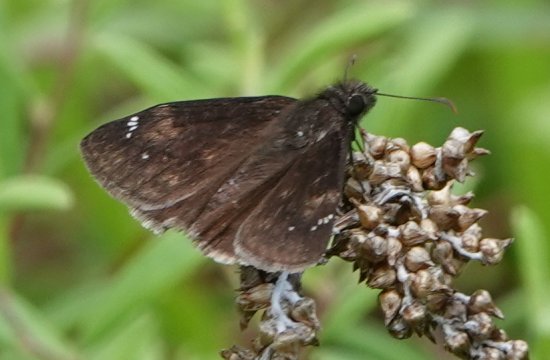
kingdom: Animalia
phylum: Arthropoda
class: Insecta
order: Lepidoptera
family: Hesperiidae
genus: Erynnis
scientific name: Erynnis zarucco
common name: Zarucco Duskywing
